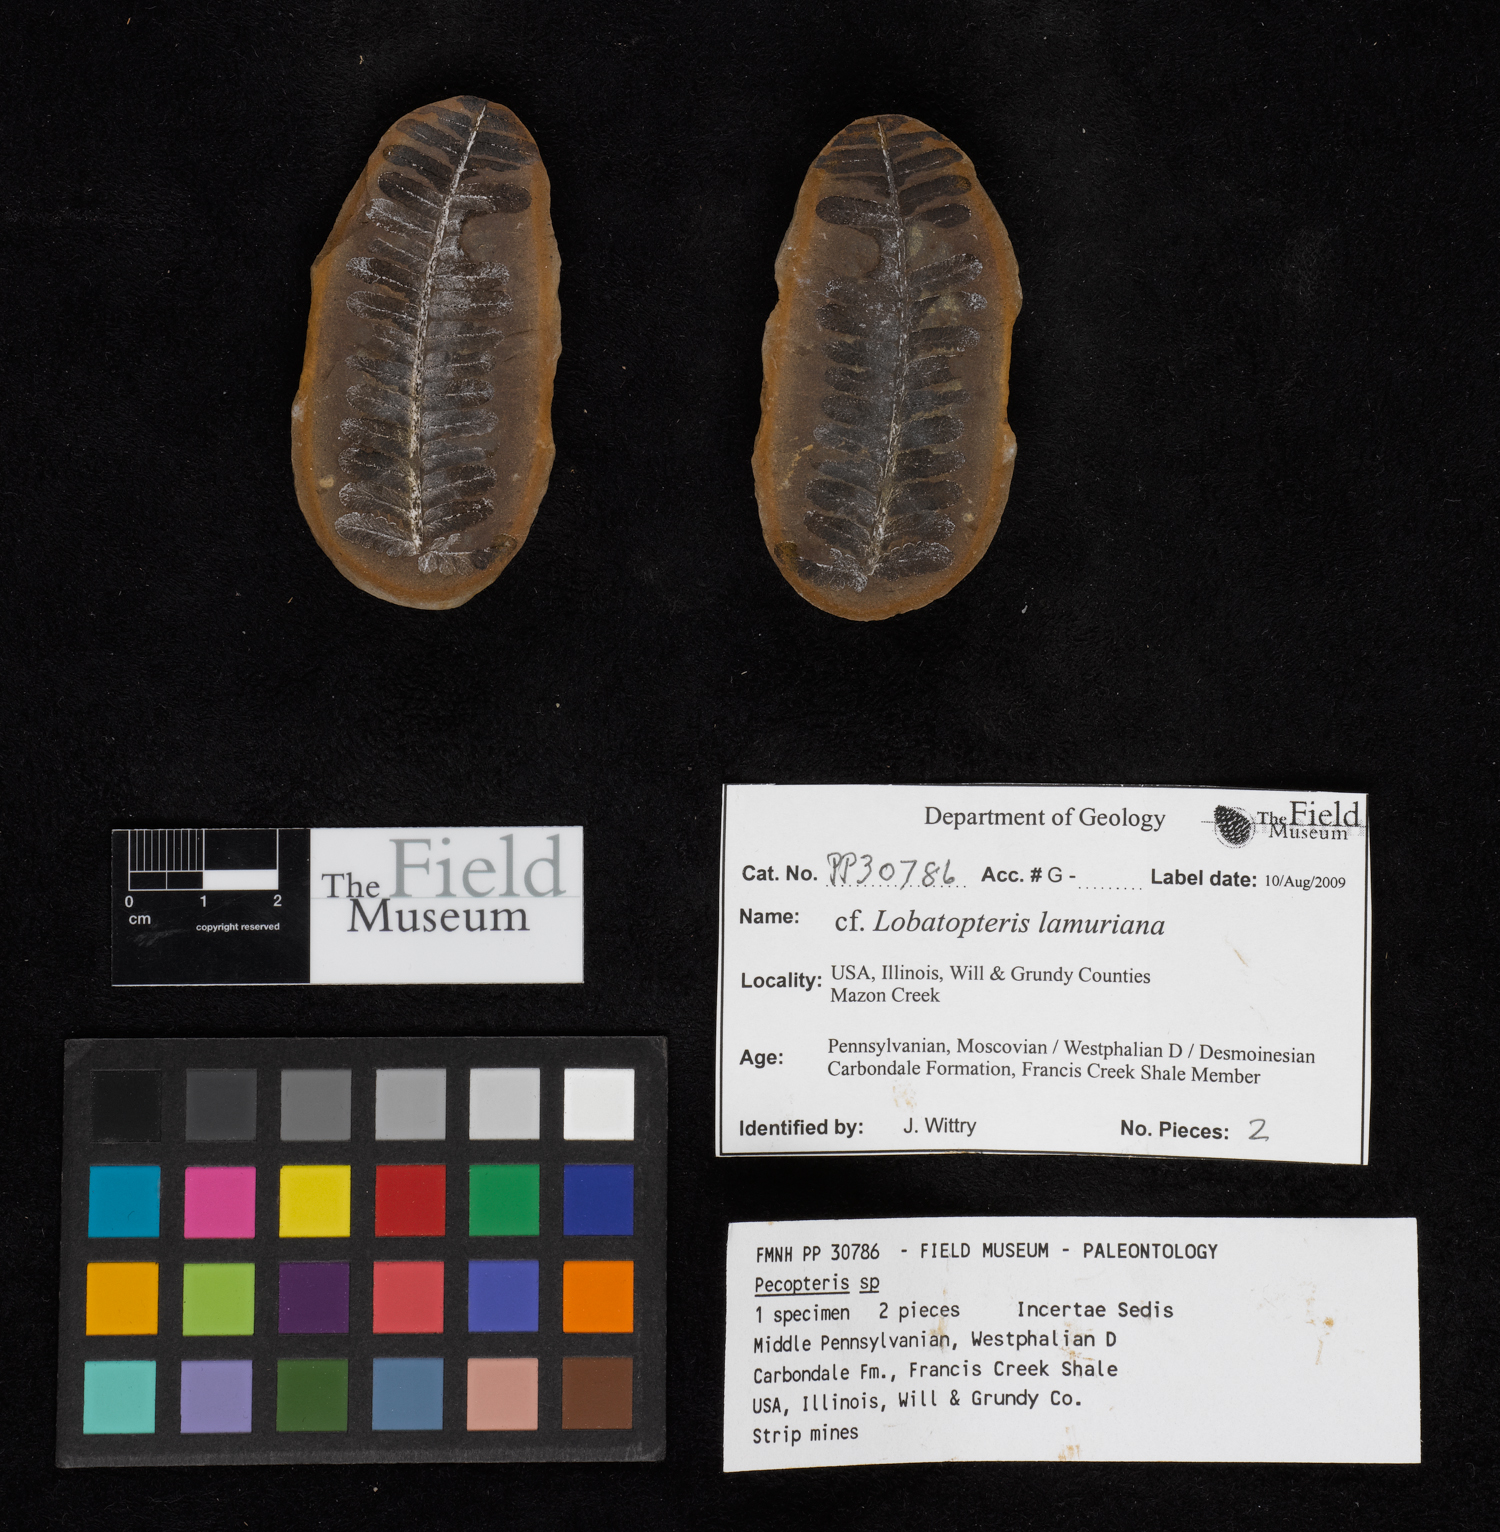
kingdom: Plantae
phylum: Tracheophyta
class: Polypodiopsida
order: Marattiales
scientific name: Marattiales
